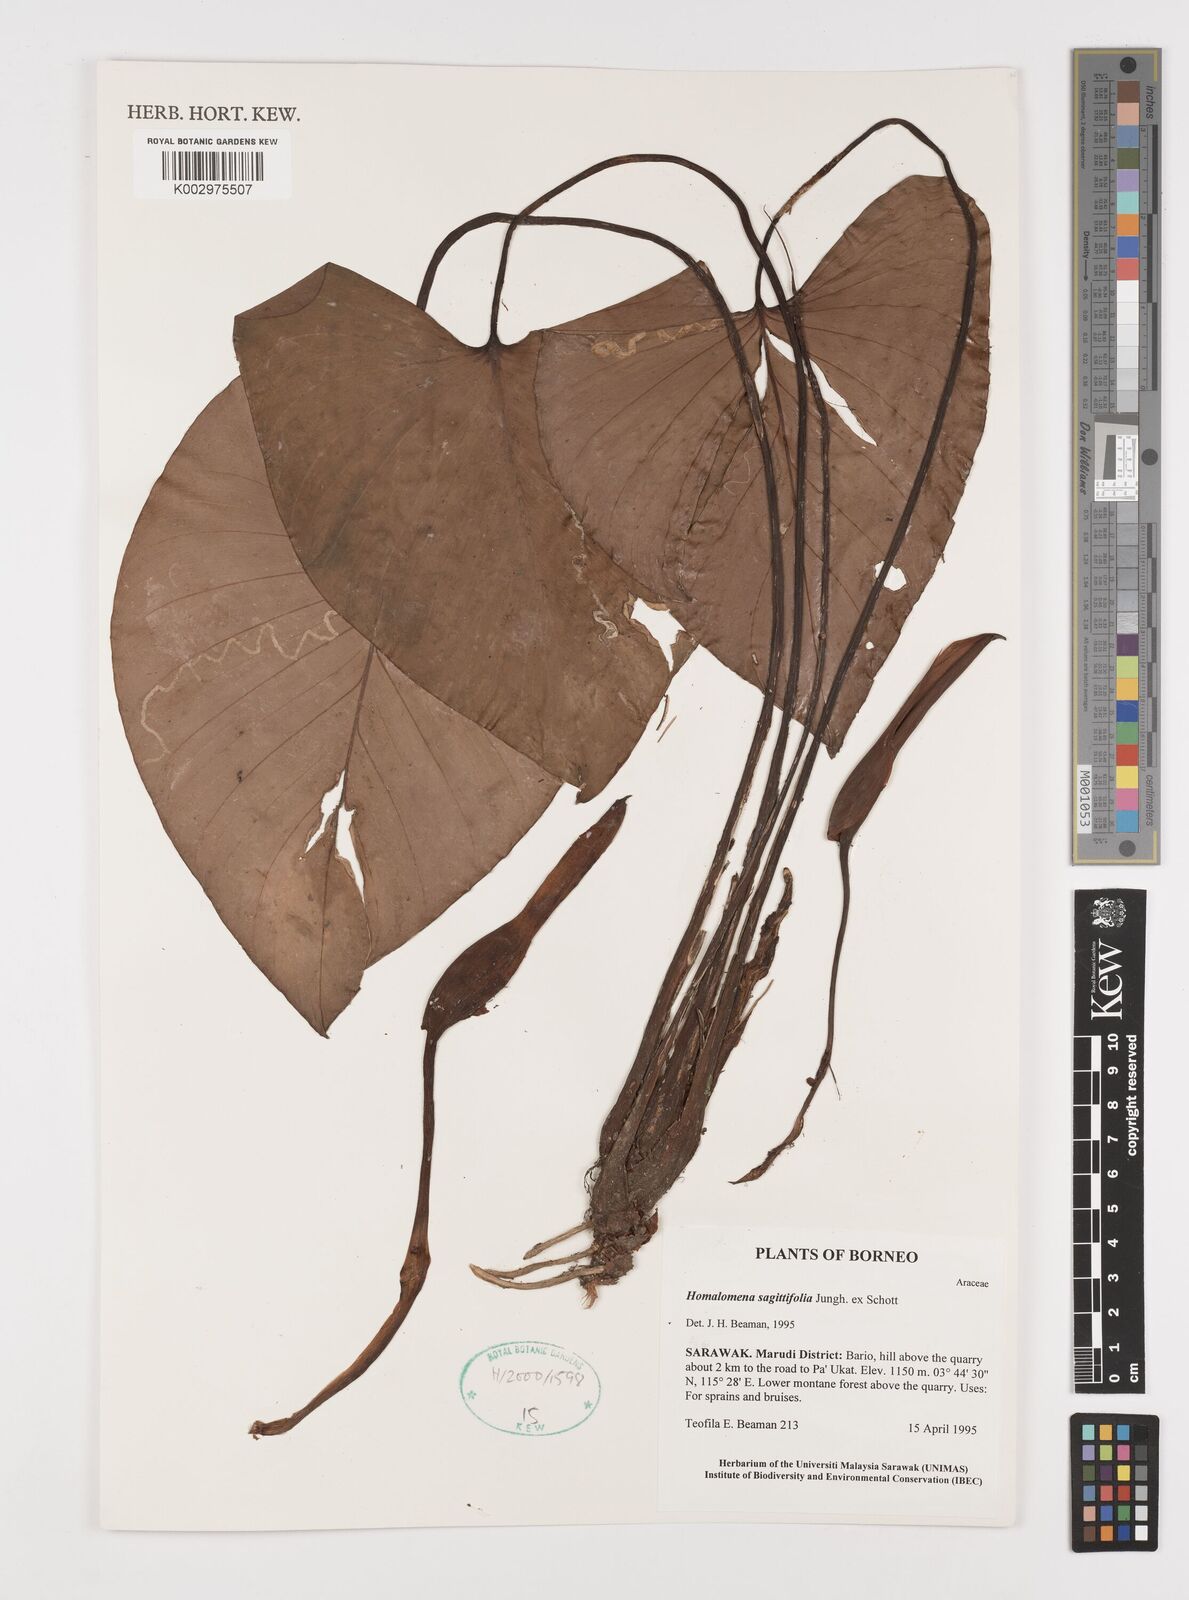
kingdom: Plantae
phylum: Tracheophyta
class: Liliopsida
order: Alismatales
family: Araceae
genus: Homalomena
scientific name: Homalomena rostrata
